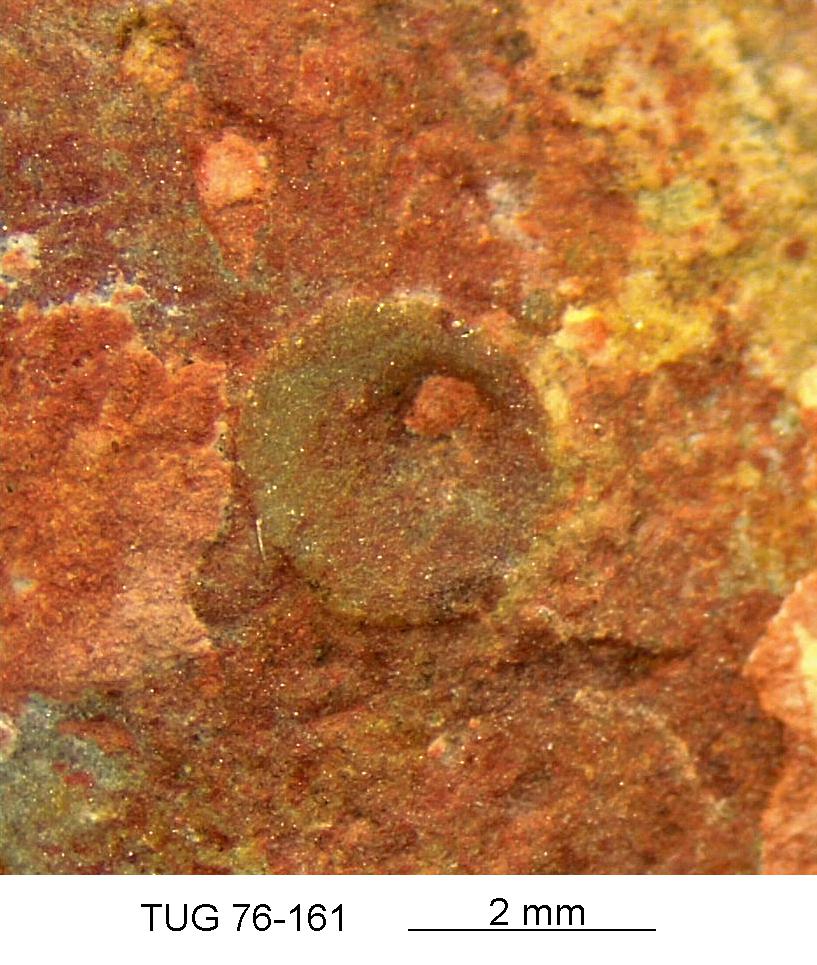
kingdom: Animalia
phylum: Brachiopoda
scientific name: Brachiopoda
